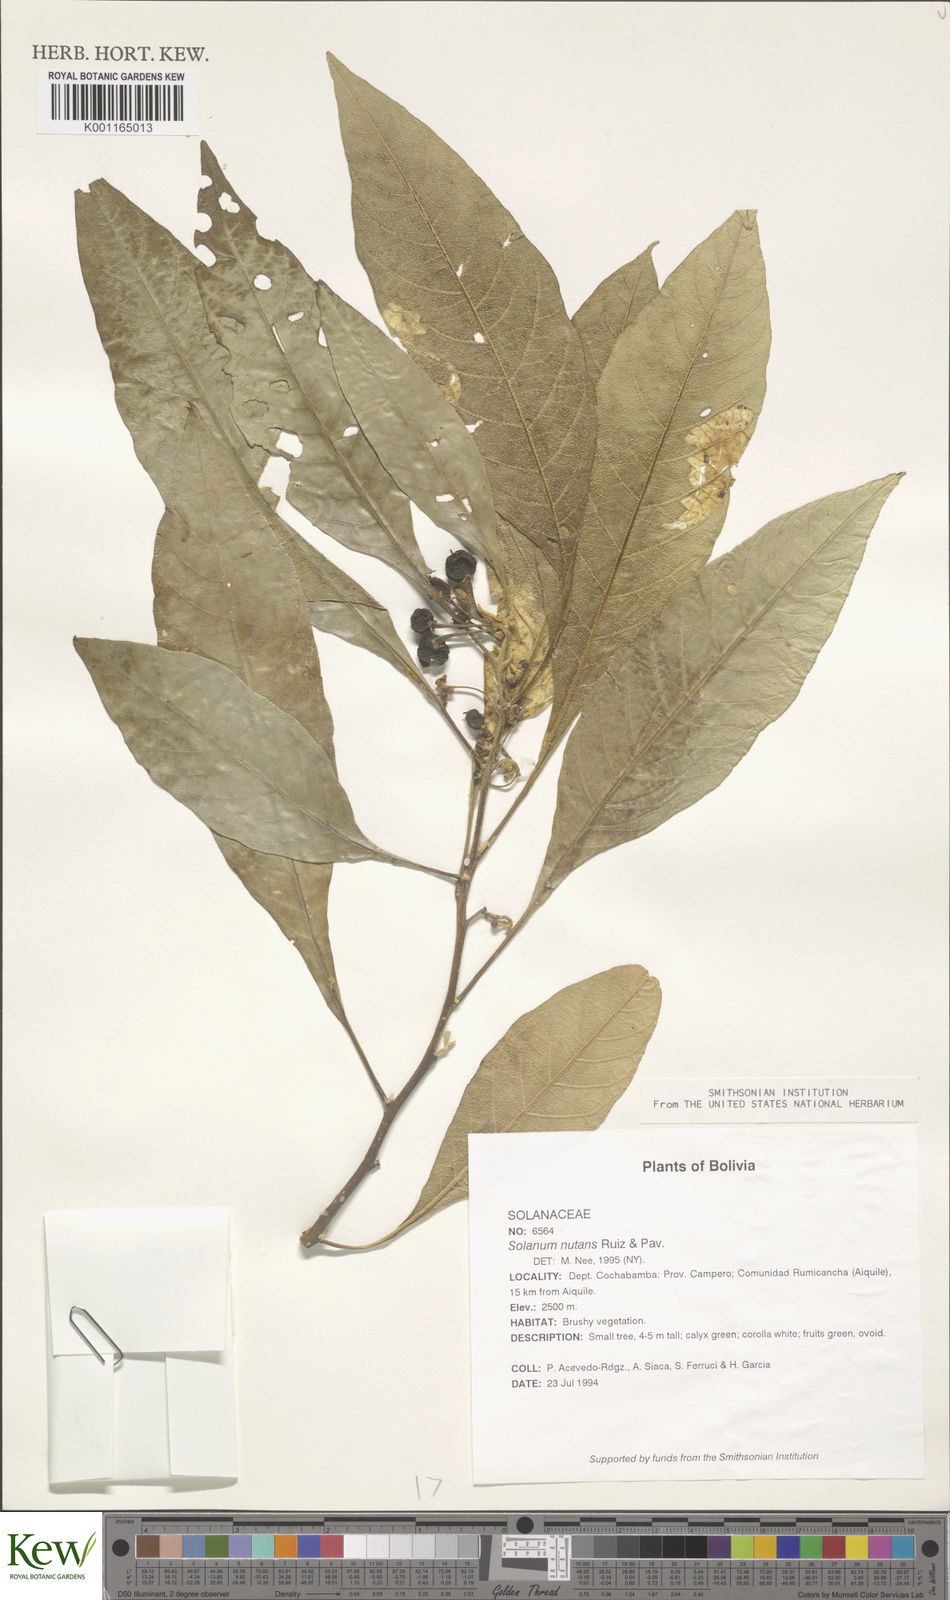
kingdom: Plantae
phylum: Tracheophyta
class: Magnoliopsida
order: Solanales
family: Solanaceae
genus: Solanum
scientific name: Solanum nutans
